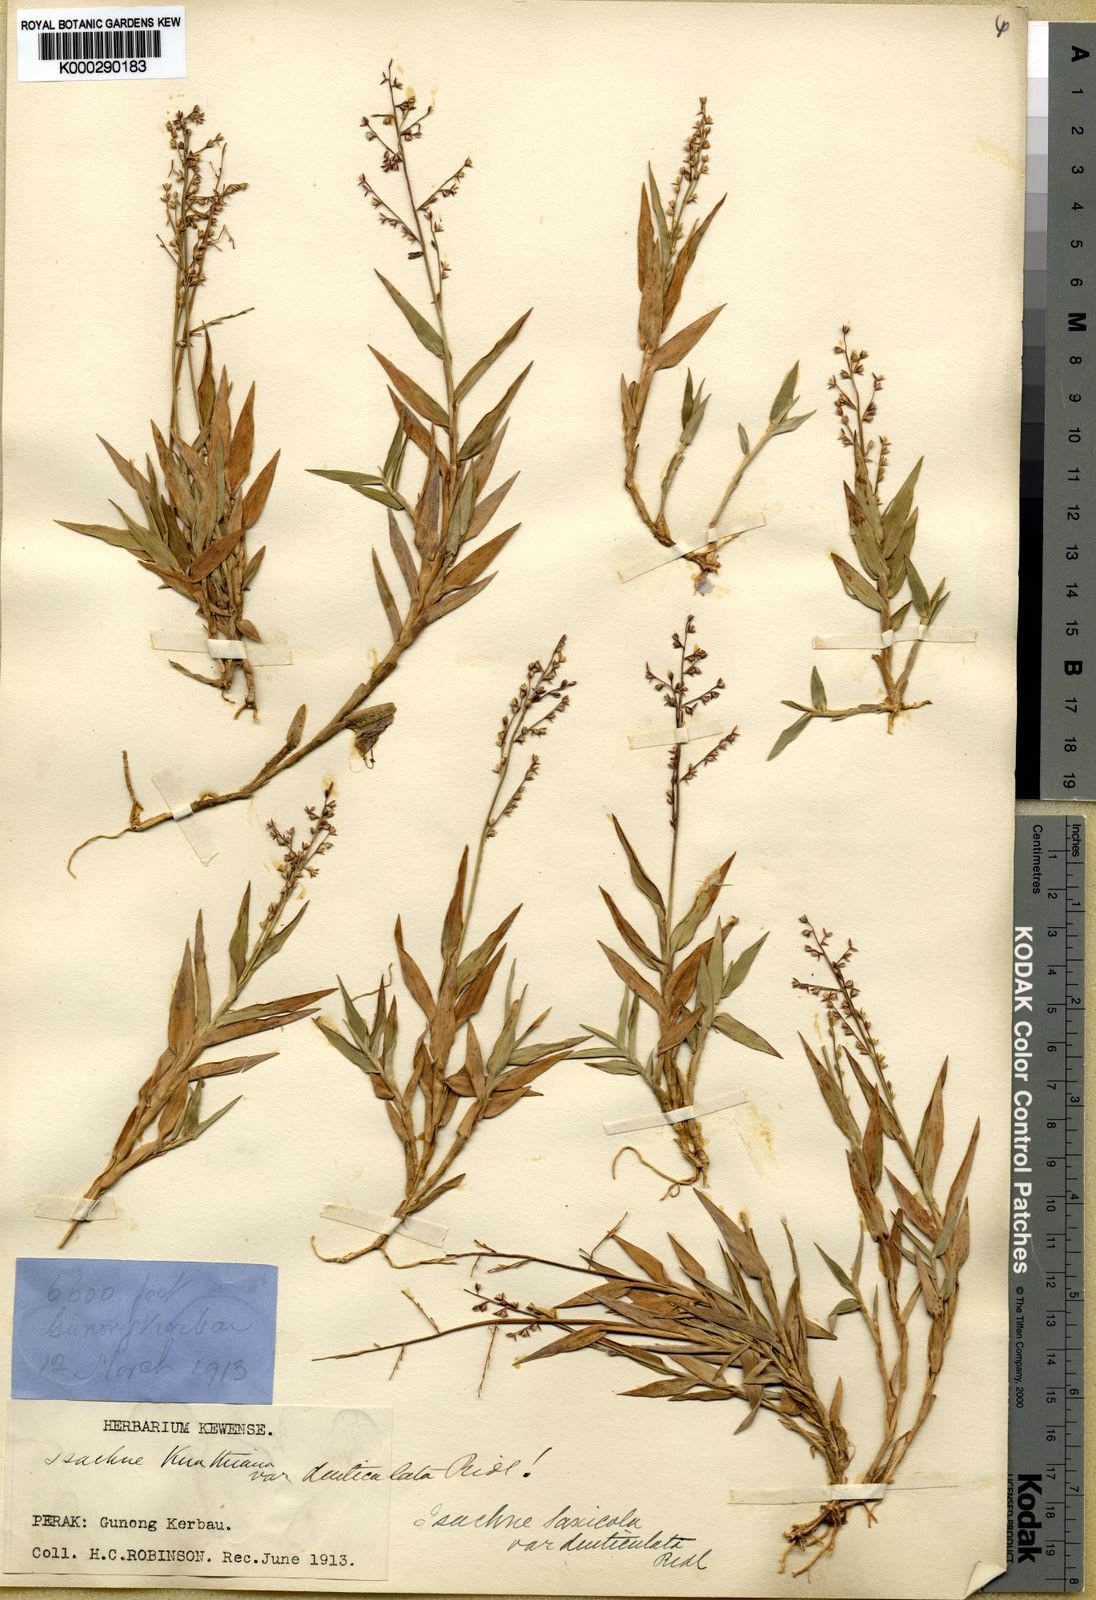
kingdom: Plantae
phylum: Tracheophyta
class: Liliopsida
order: Poales
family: Poaceae
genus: Isachne
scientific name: Isachne clementis
